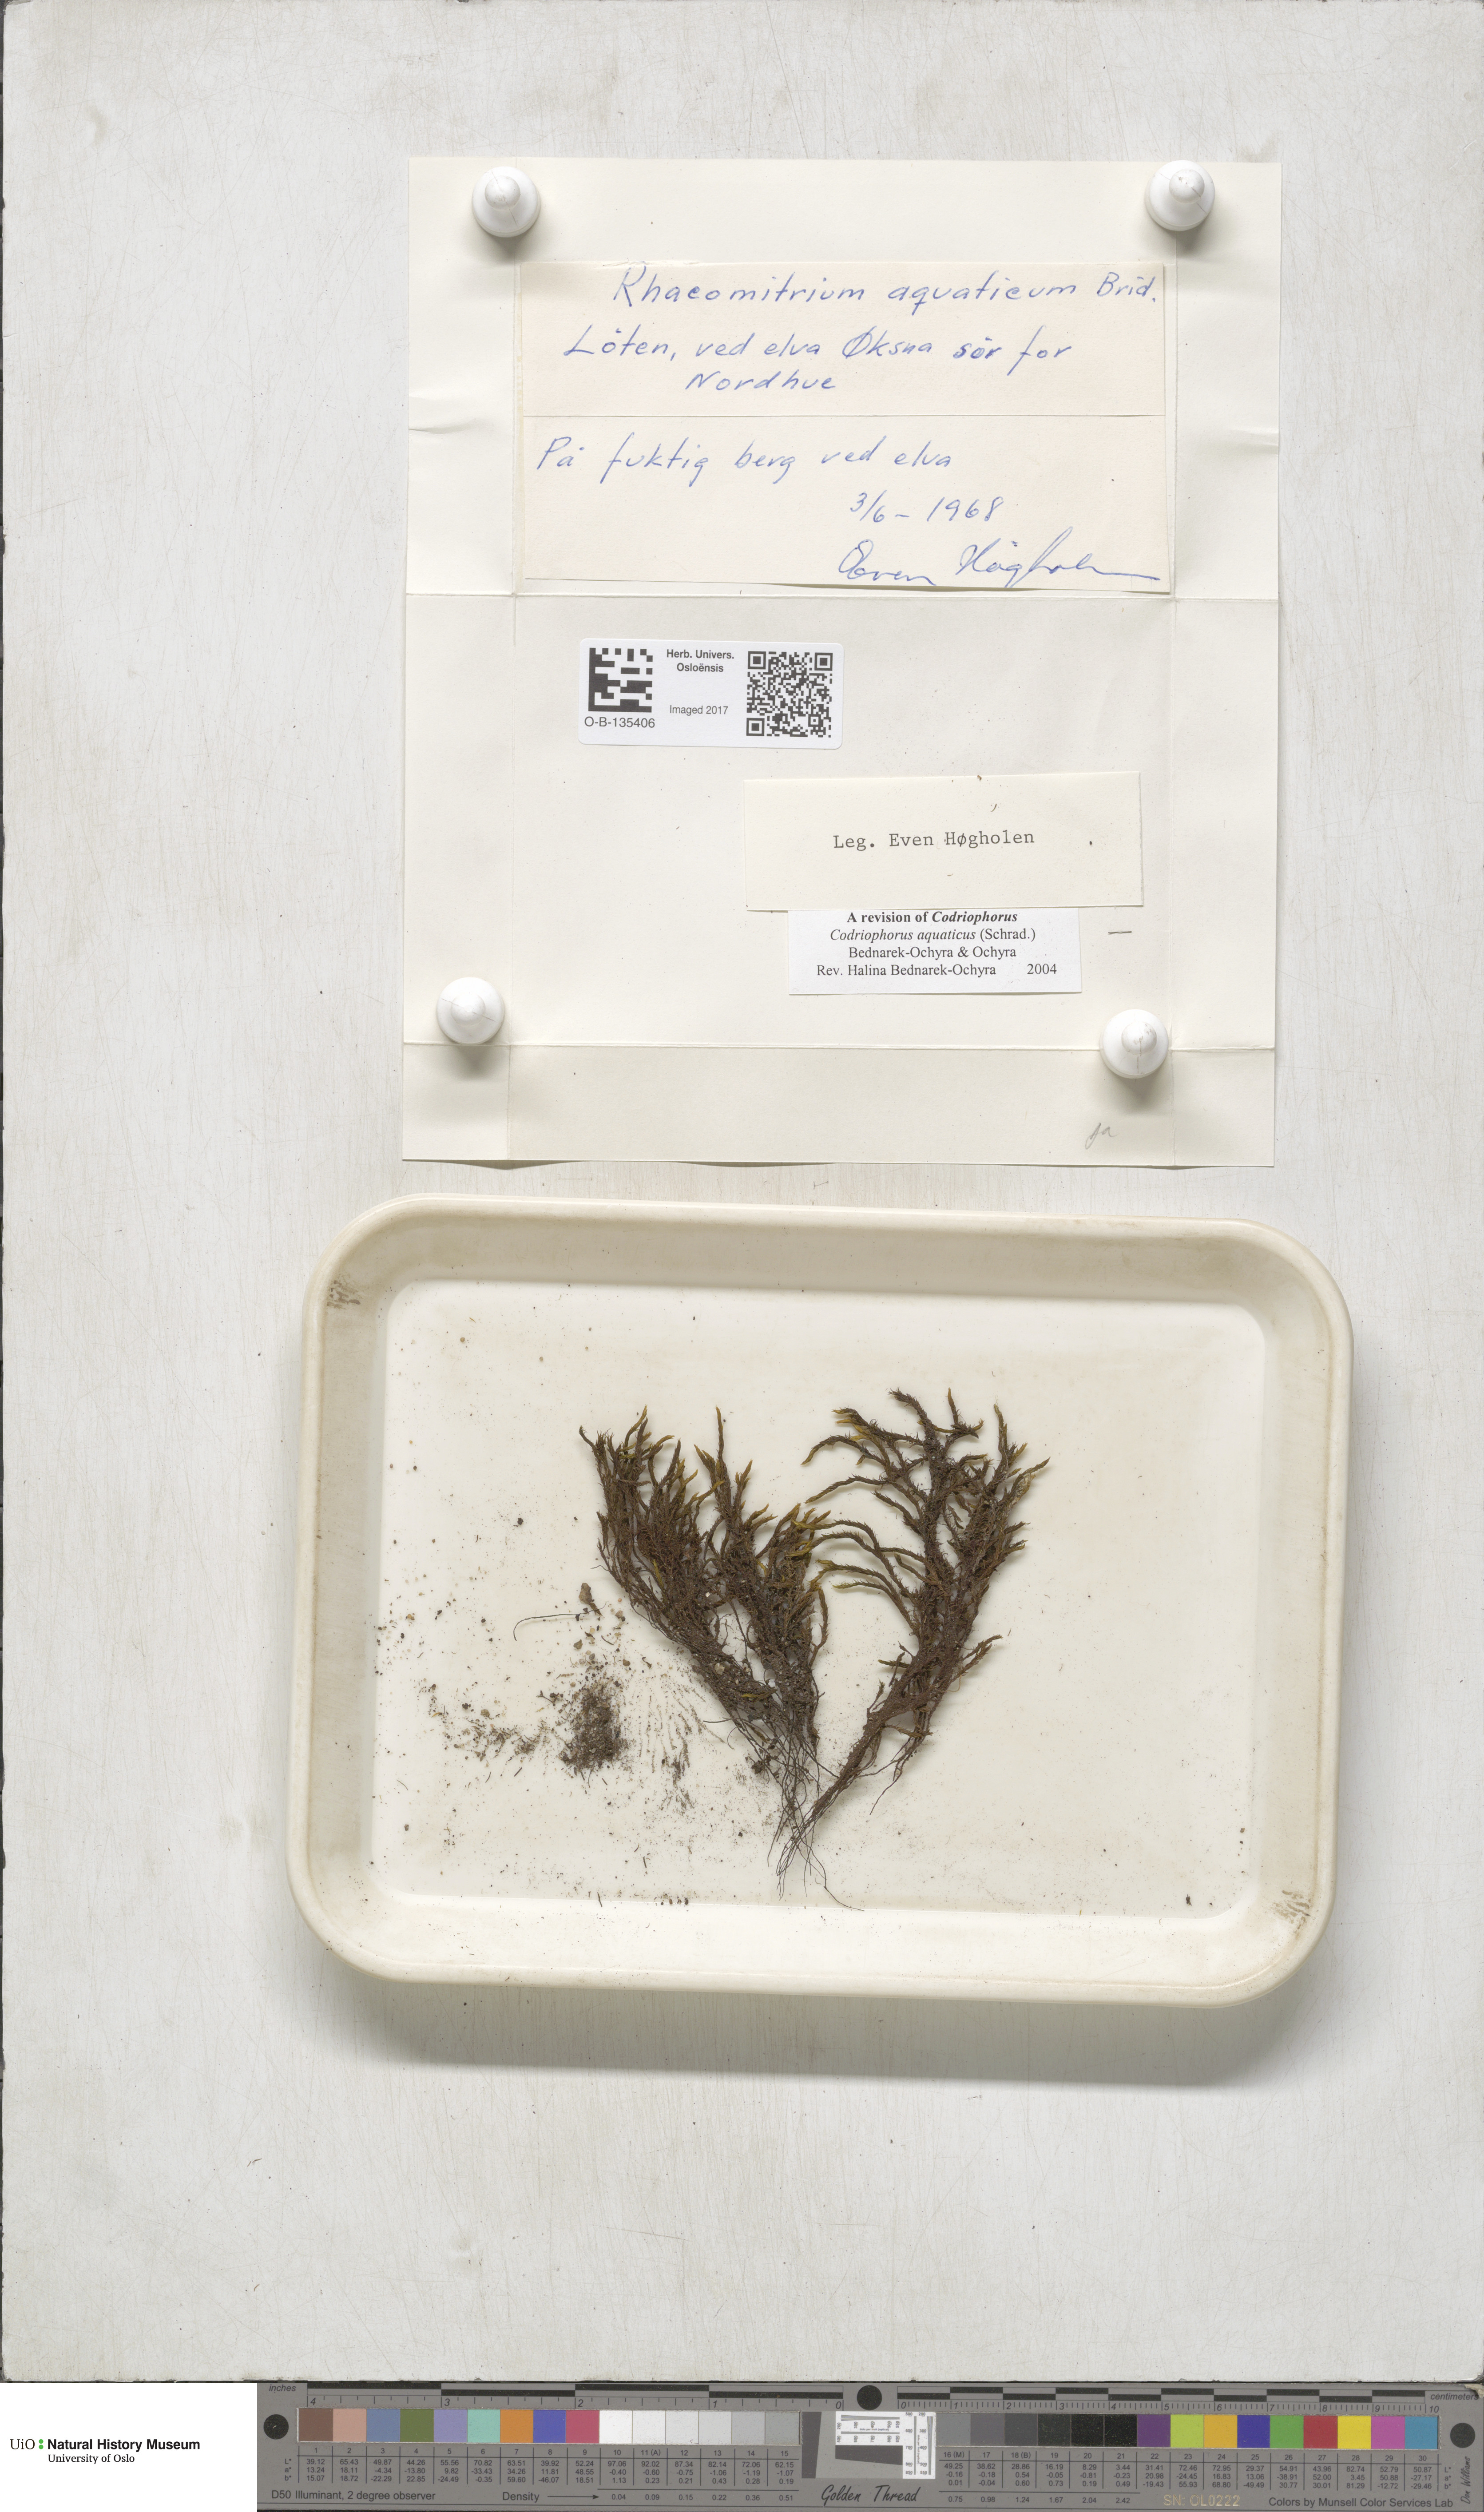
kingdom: Plantae
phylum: Bryophyta
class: Bryopsida
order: Grimmiales
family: Grimmiaceae
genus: Codriophorus
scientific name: Codriophorus aquaticus
